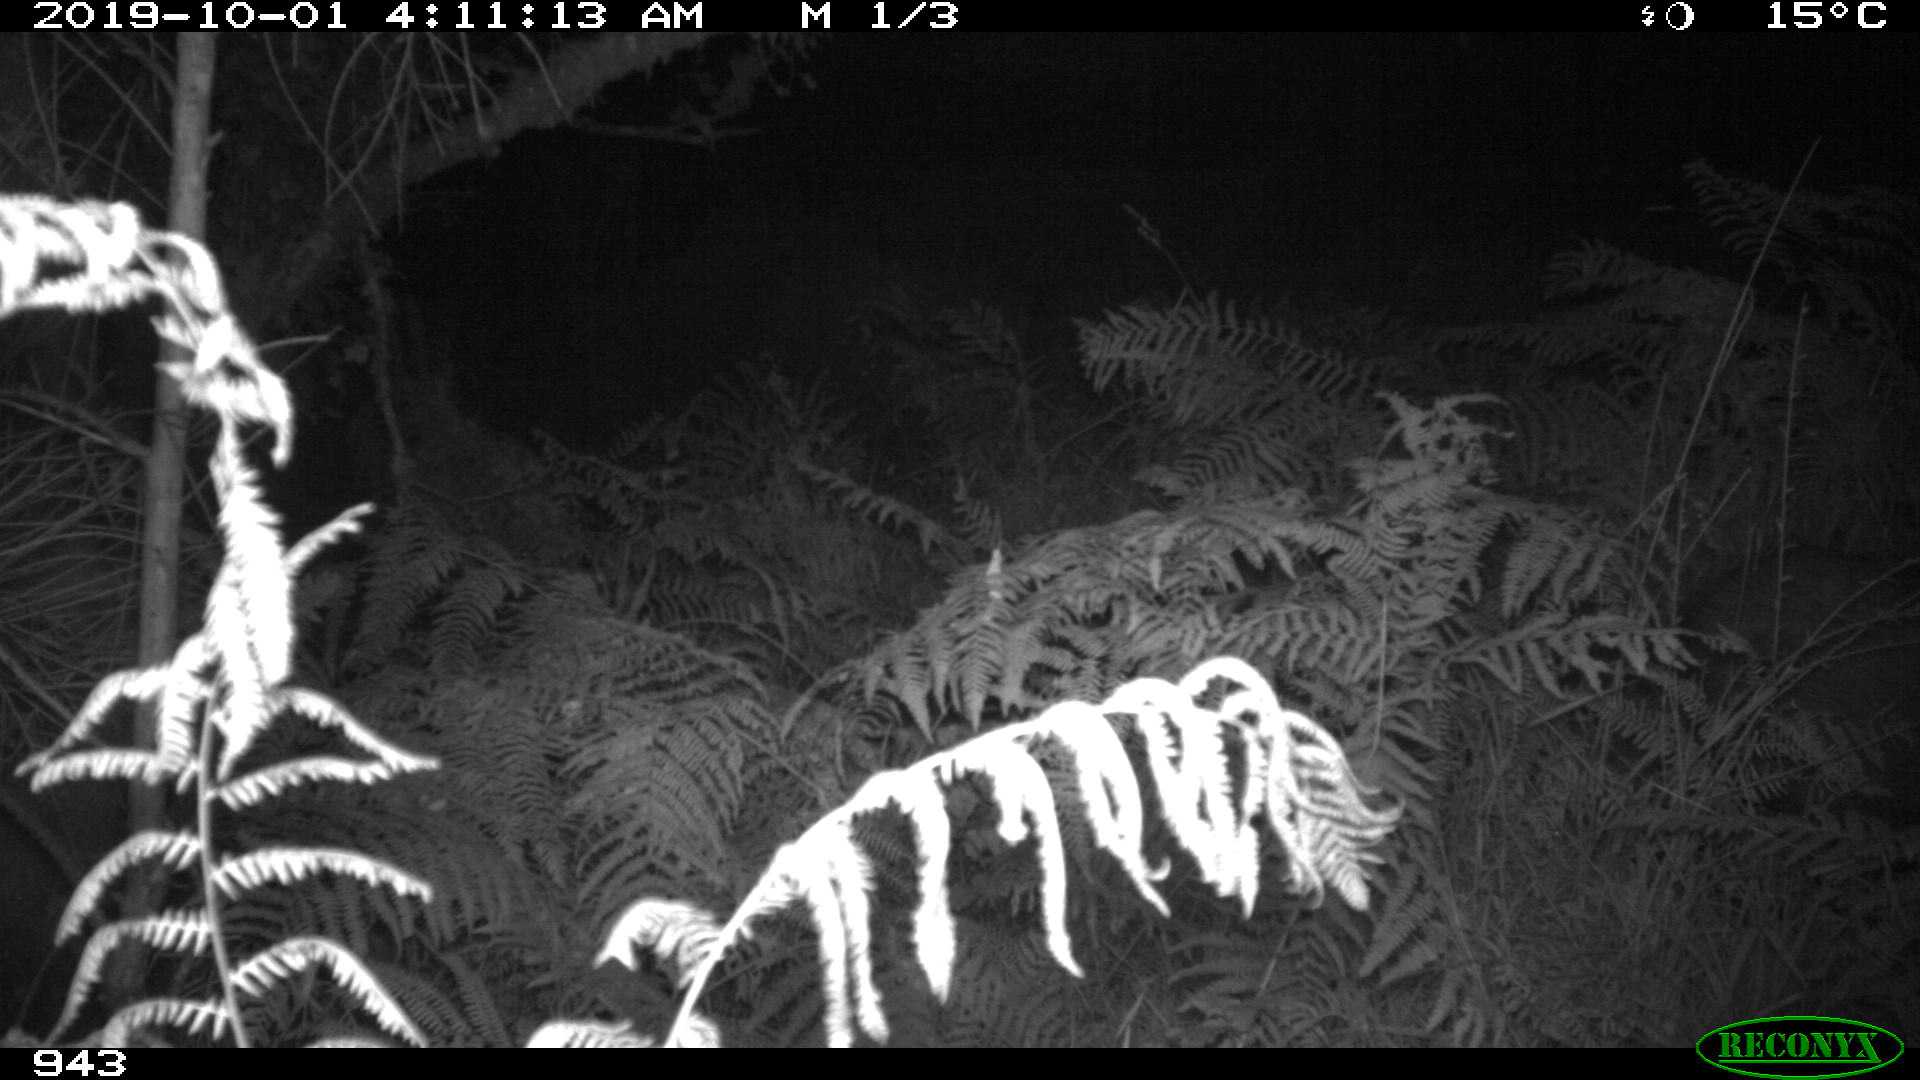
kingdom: Animalia
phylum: Chordata
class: Mammalia
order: Artiodactyla
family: Suidae
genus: Sus
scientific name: Sus scrofa
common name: Wild boar
